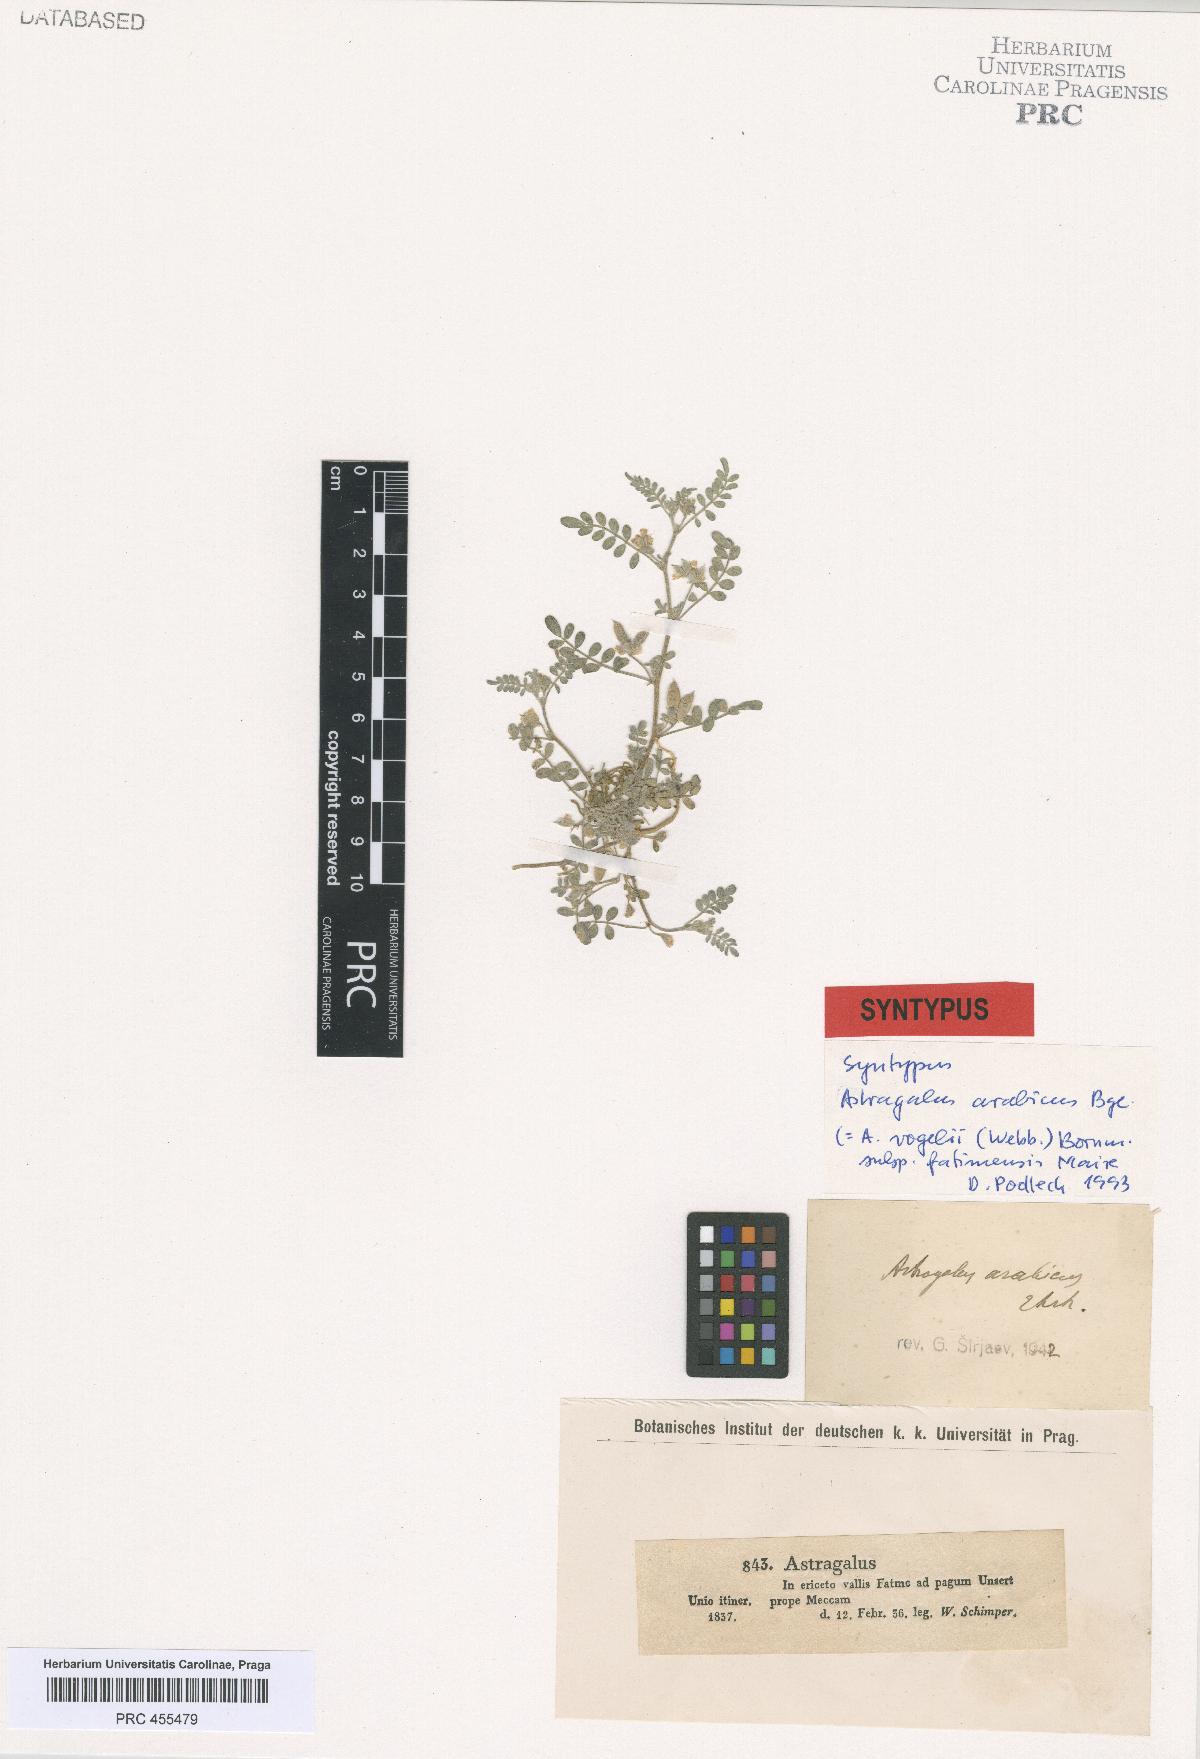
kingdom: Plantae
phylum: Tracheophyta
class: Magnoliopsida
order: Fabales
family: Fabaceae
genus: Astragalus
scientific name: Astragalus vogelii
